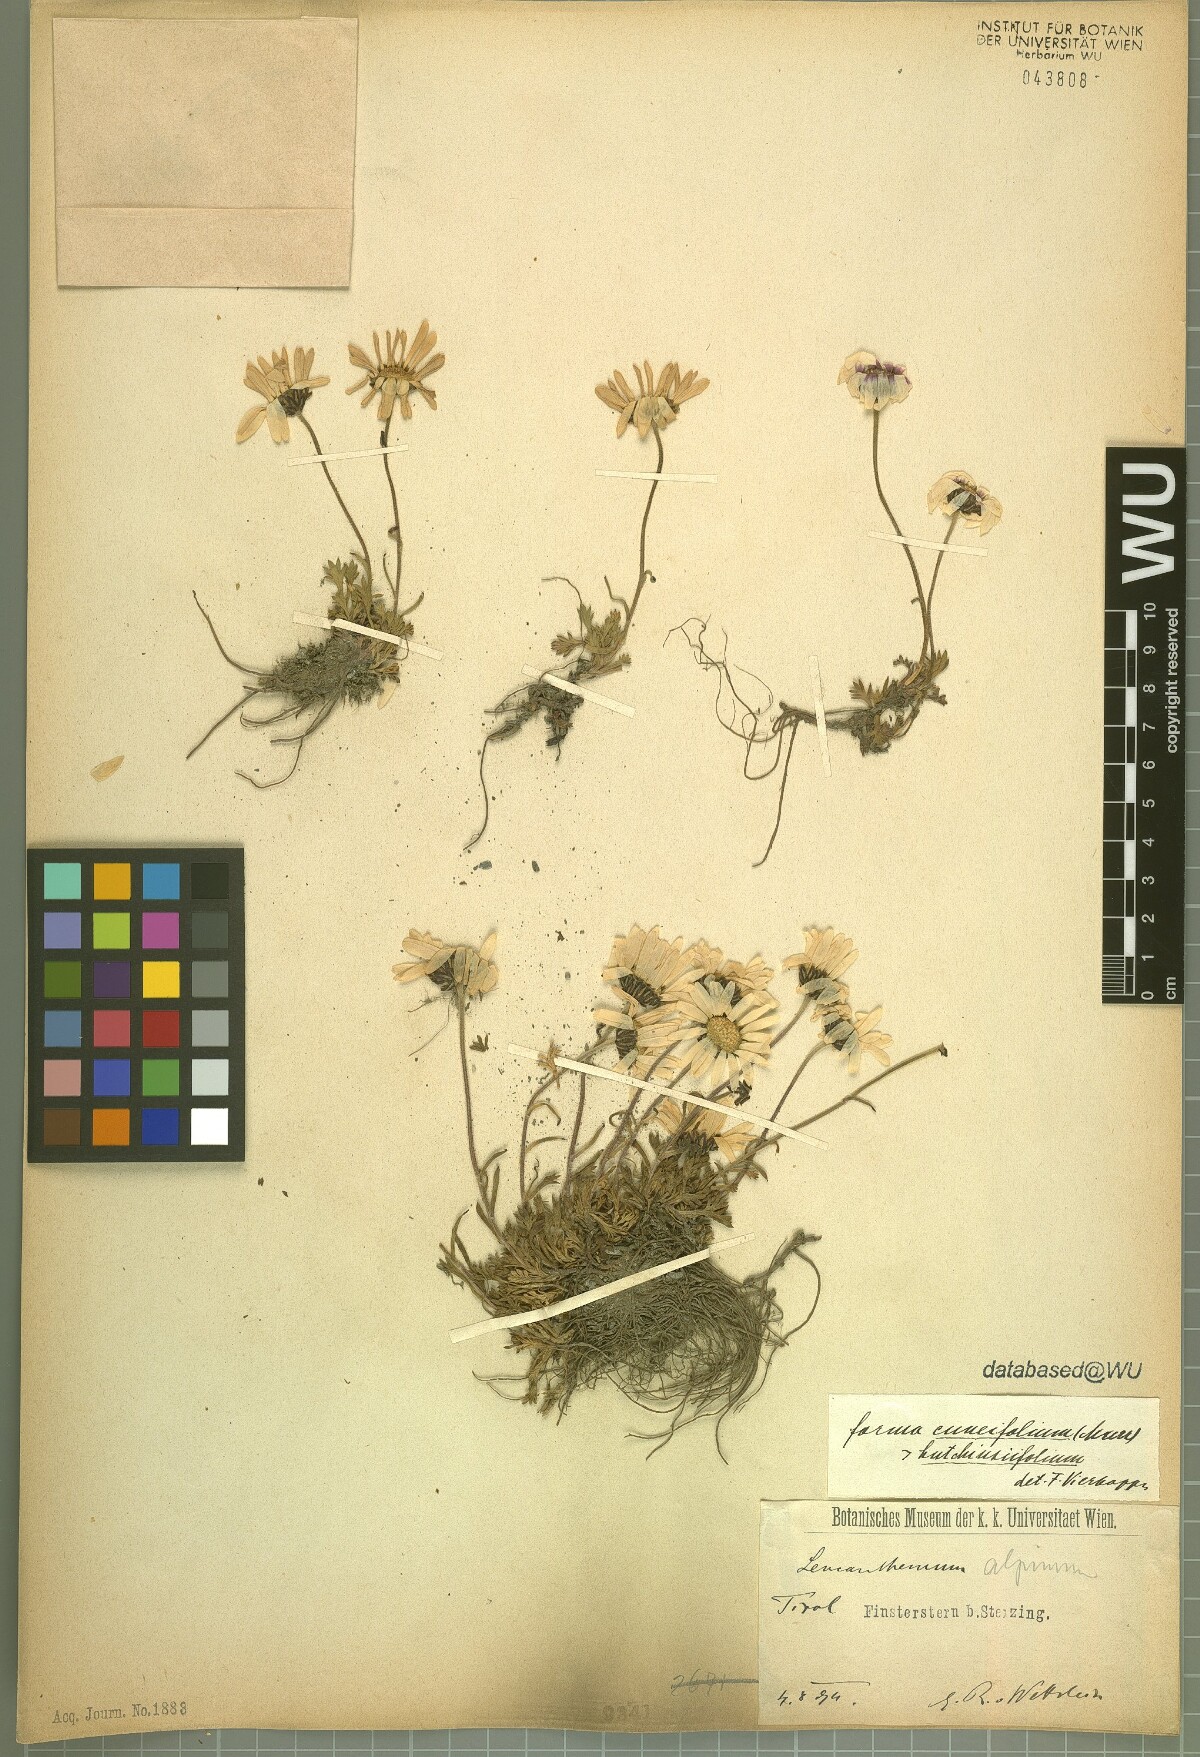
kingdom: Plantae
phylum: Tracheophyta
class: Magnoliopsida
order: Asterales
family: Asteraceae
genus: Leucanthemopsis
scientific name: Leucanthemopsis alpina
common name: Alpine moon daisy
